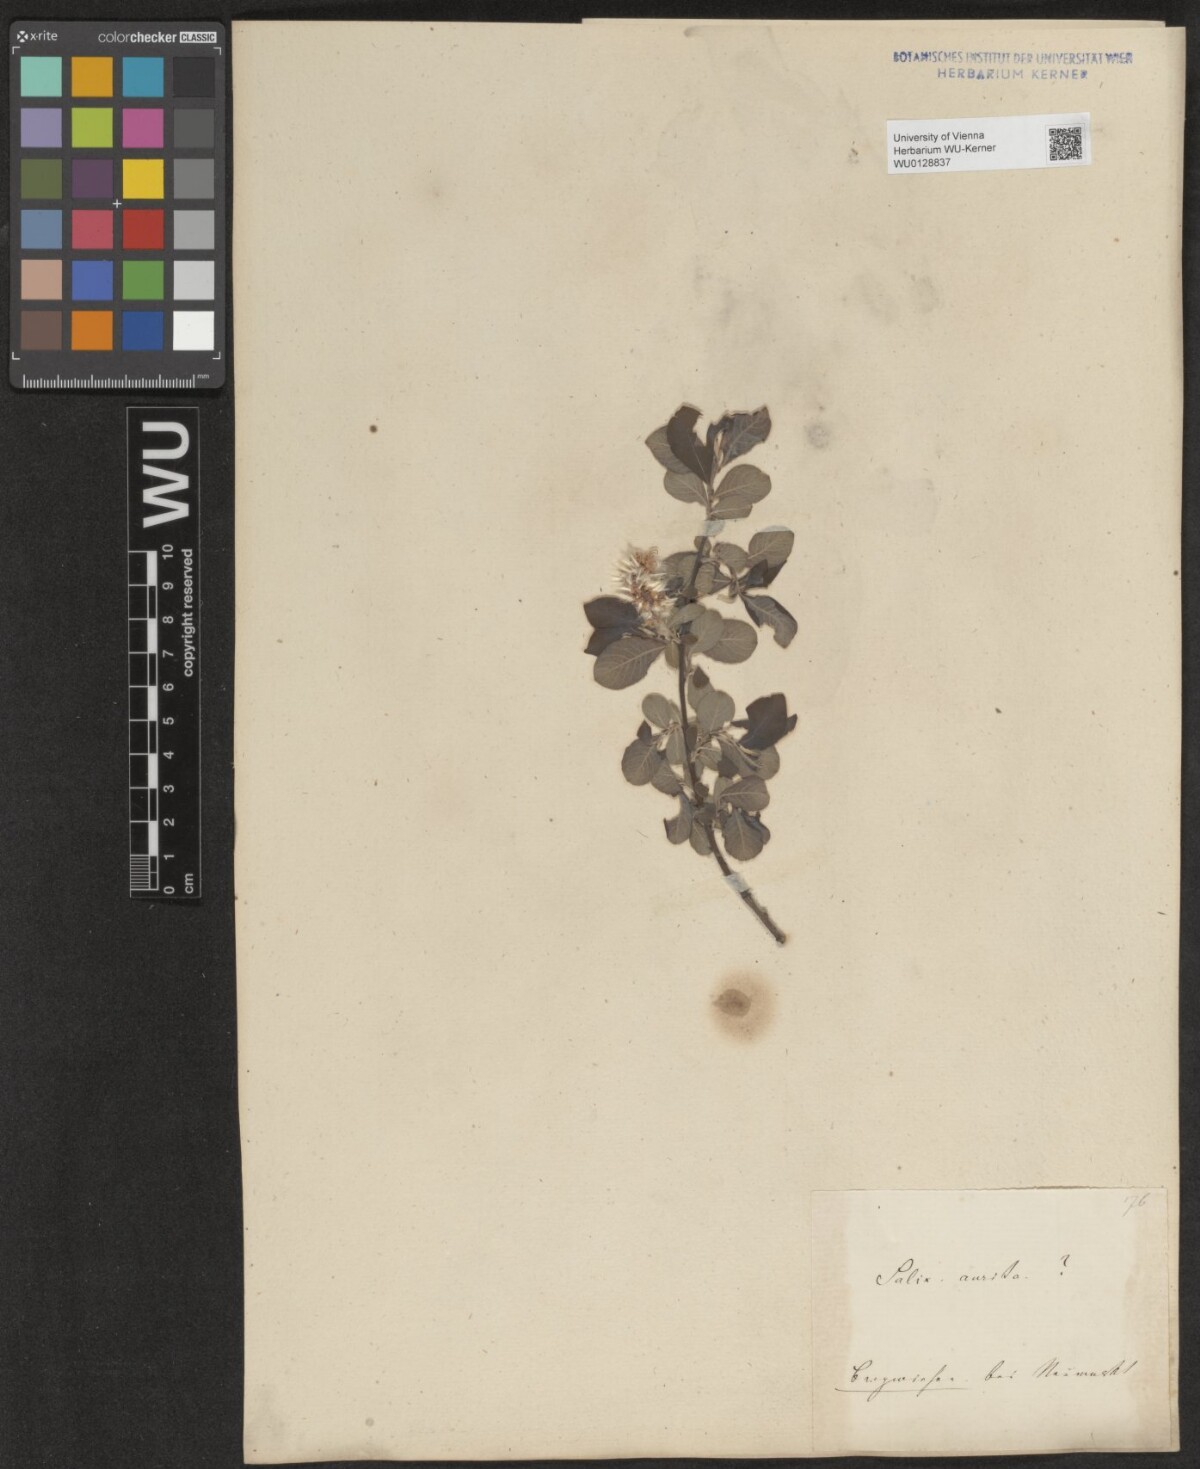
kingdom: Plantae
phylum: Tracheophyta
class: Magnoliopsida
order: Malpighiales
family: Salicaceae
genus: Salix
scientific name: Salix aurita
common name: Eared willow
